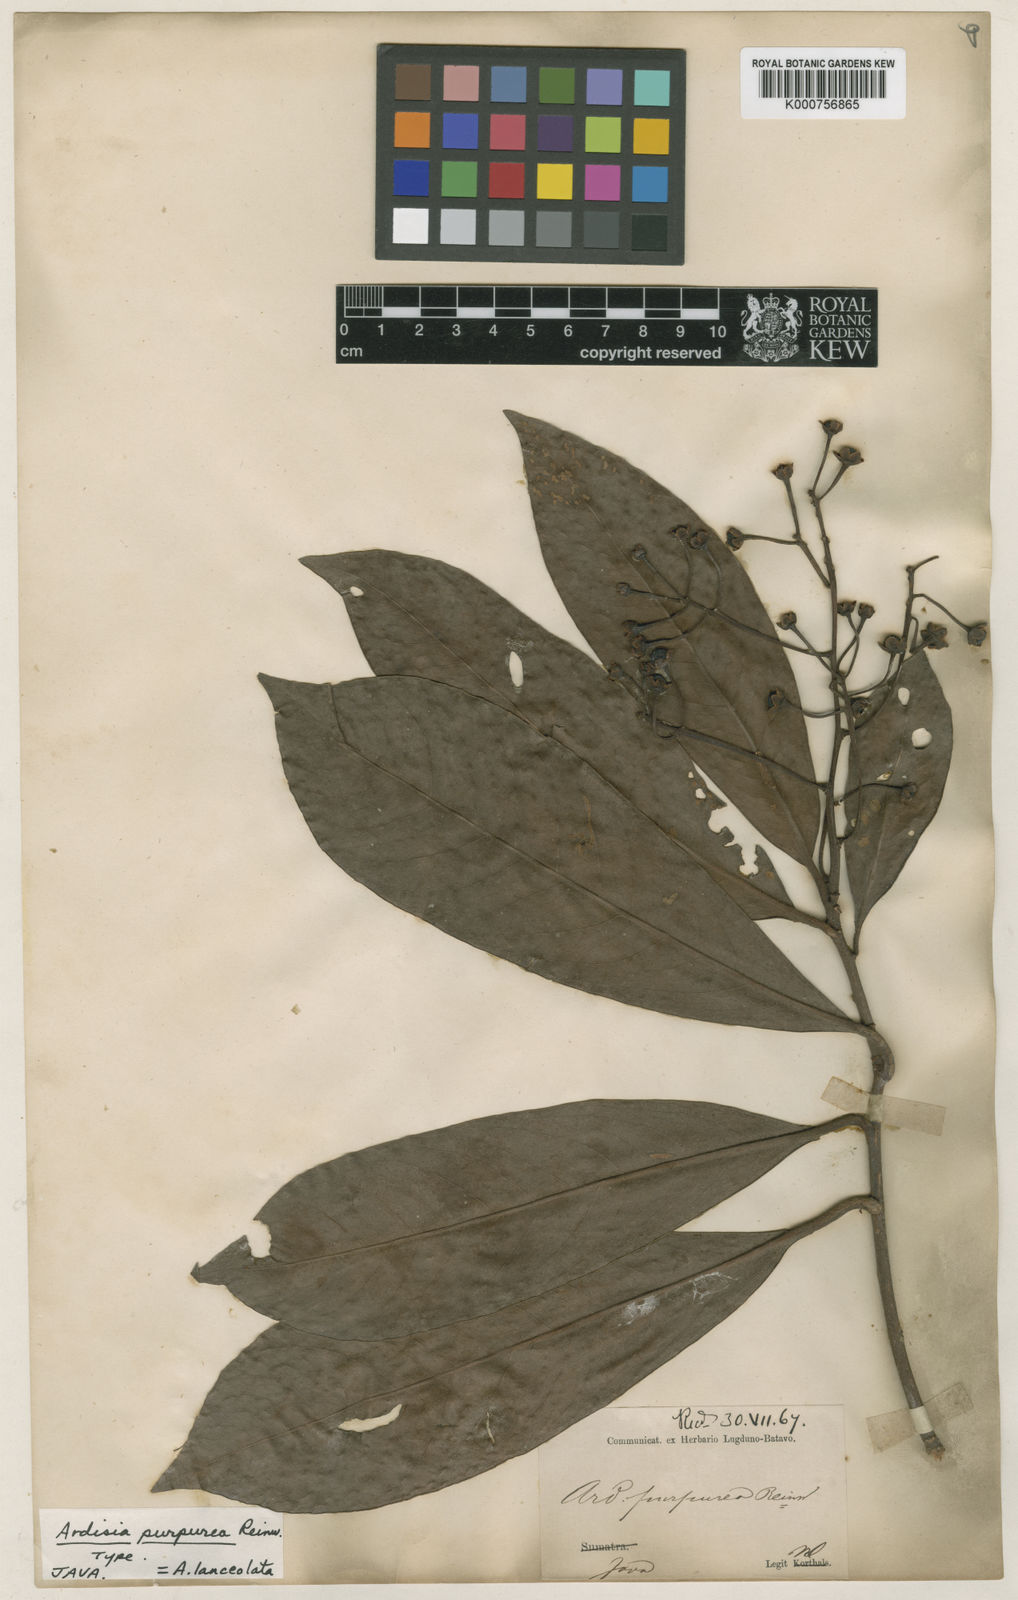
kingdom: Plantae
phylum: Tracheophyta
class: Magnoliopsida
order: Ericales
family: Primulaceae
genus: Ardisia
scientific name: Ardisia purpurea
